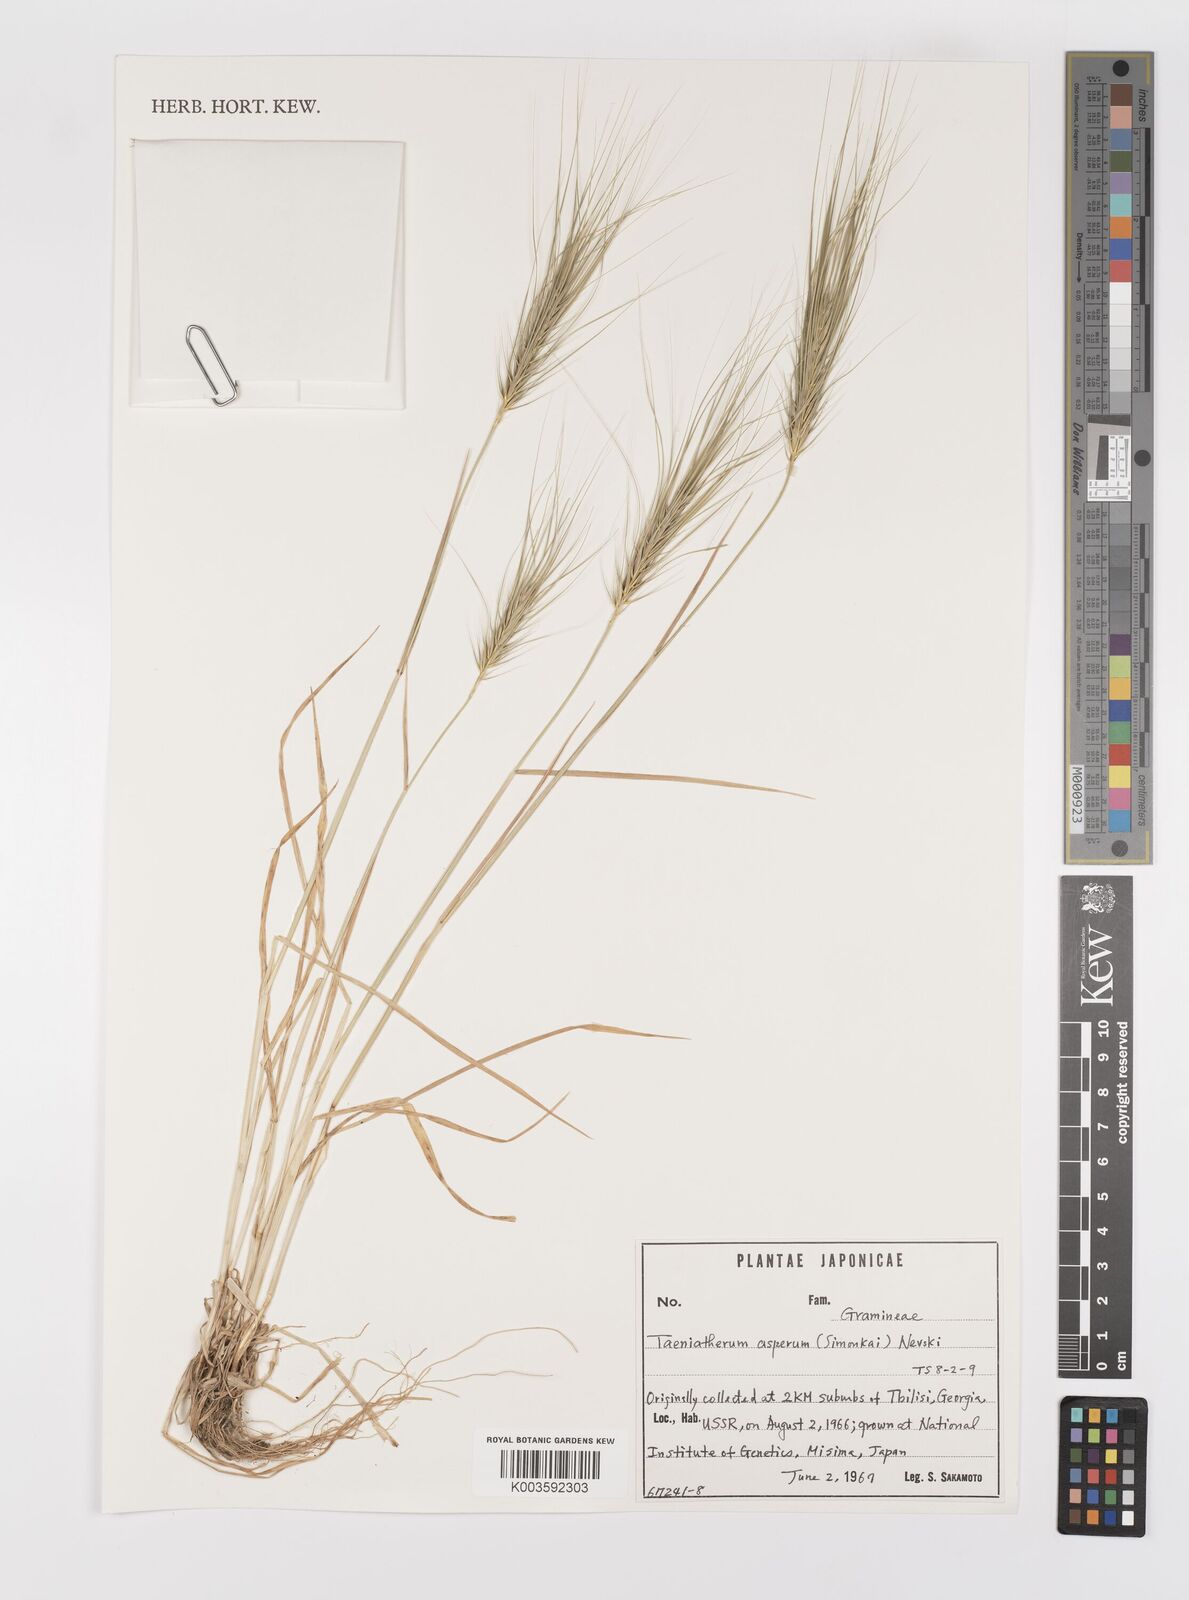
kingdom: Plantae
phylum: Tracheophyta
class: Liliopsida
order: Poales
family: Poaceae
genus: Taeniatherum
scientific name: Taeniatherum caput-medusae
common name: Medusahead
